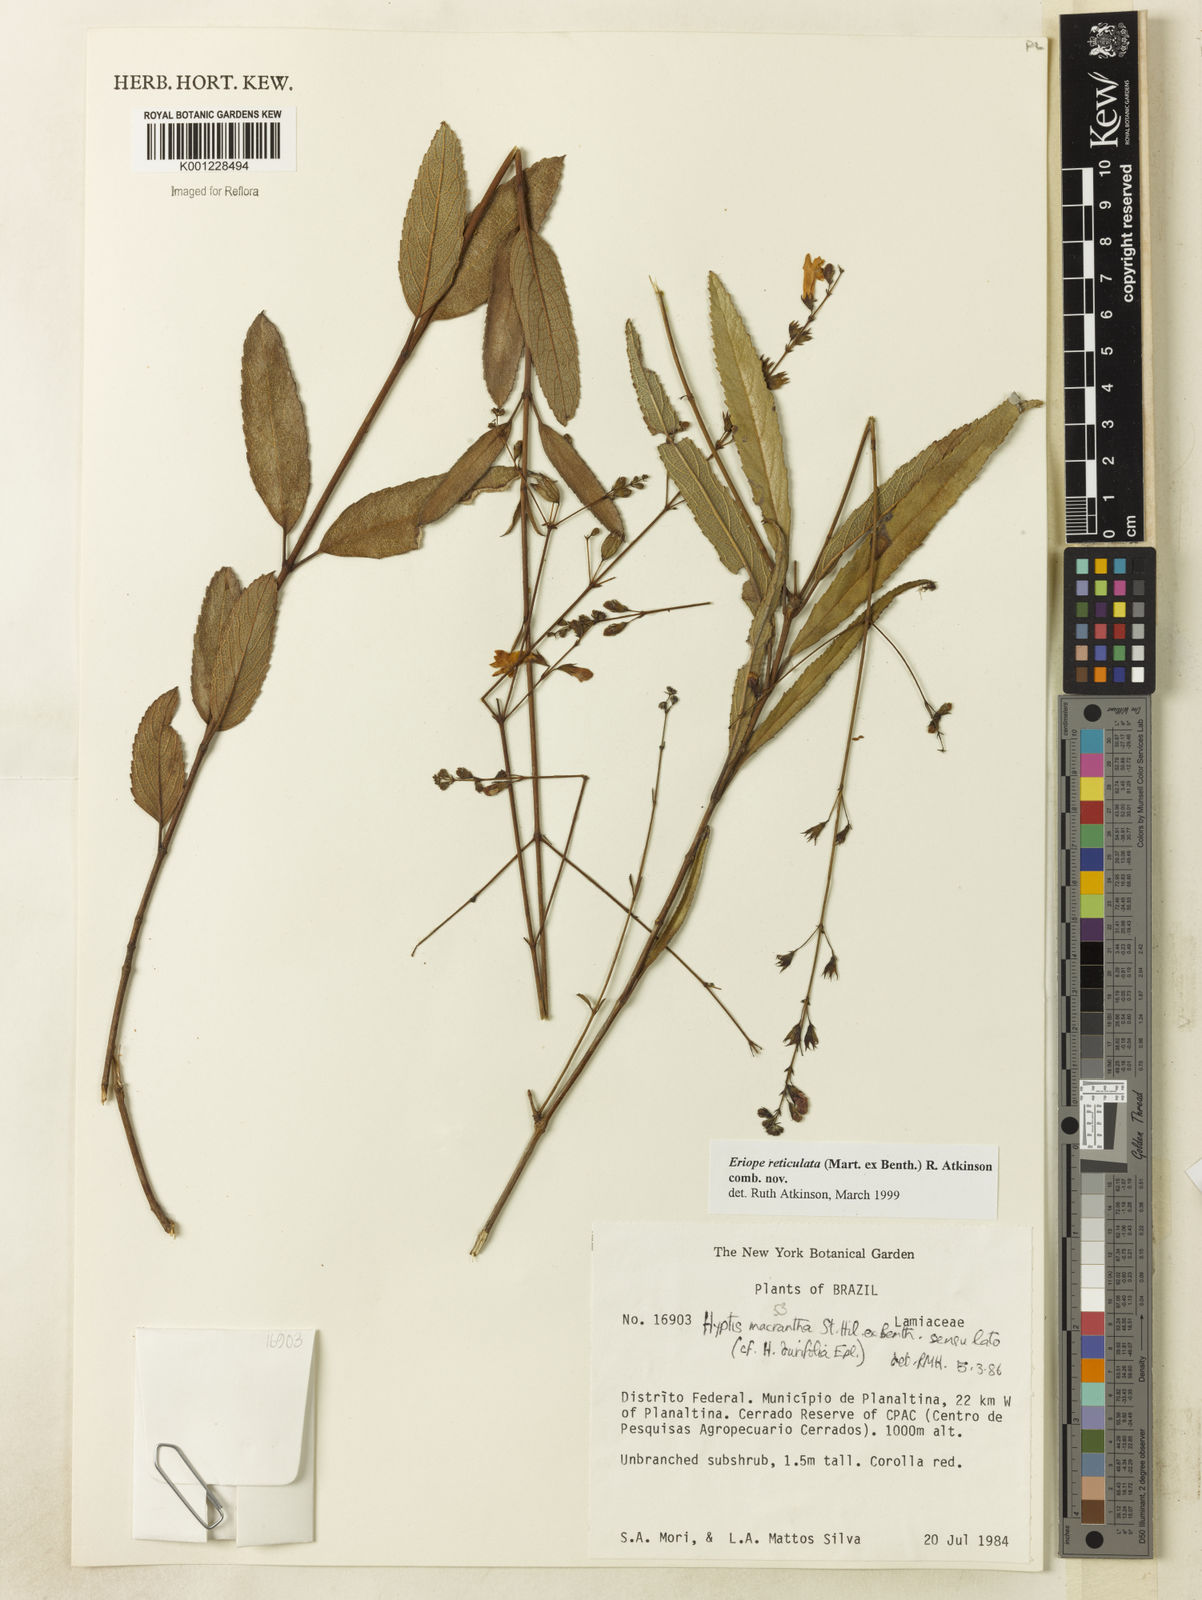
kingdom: Plantae
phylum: Tracheophyta
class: Magnoliopsida
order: Lamiales
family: Lamiaceae
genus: Hypenia
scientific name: Hypenia reticulata
